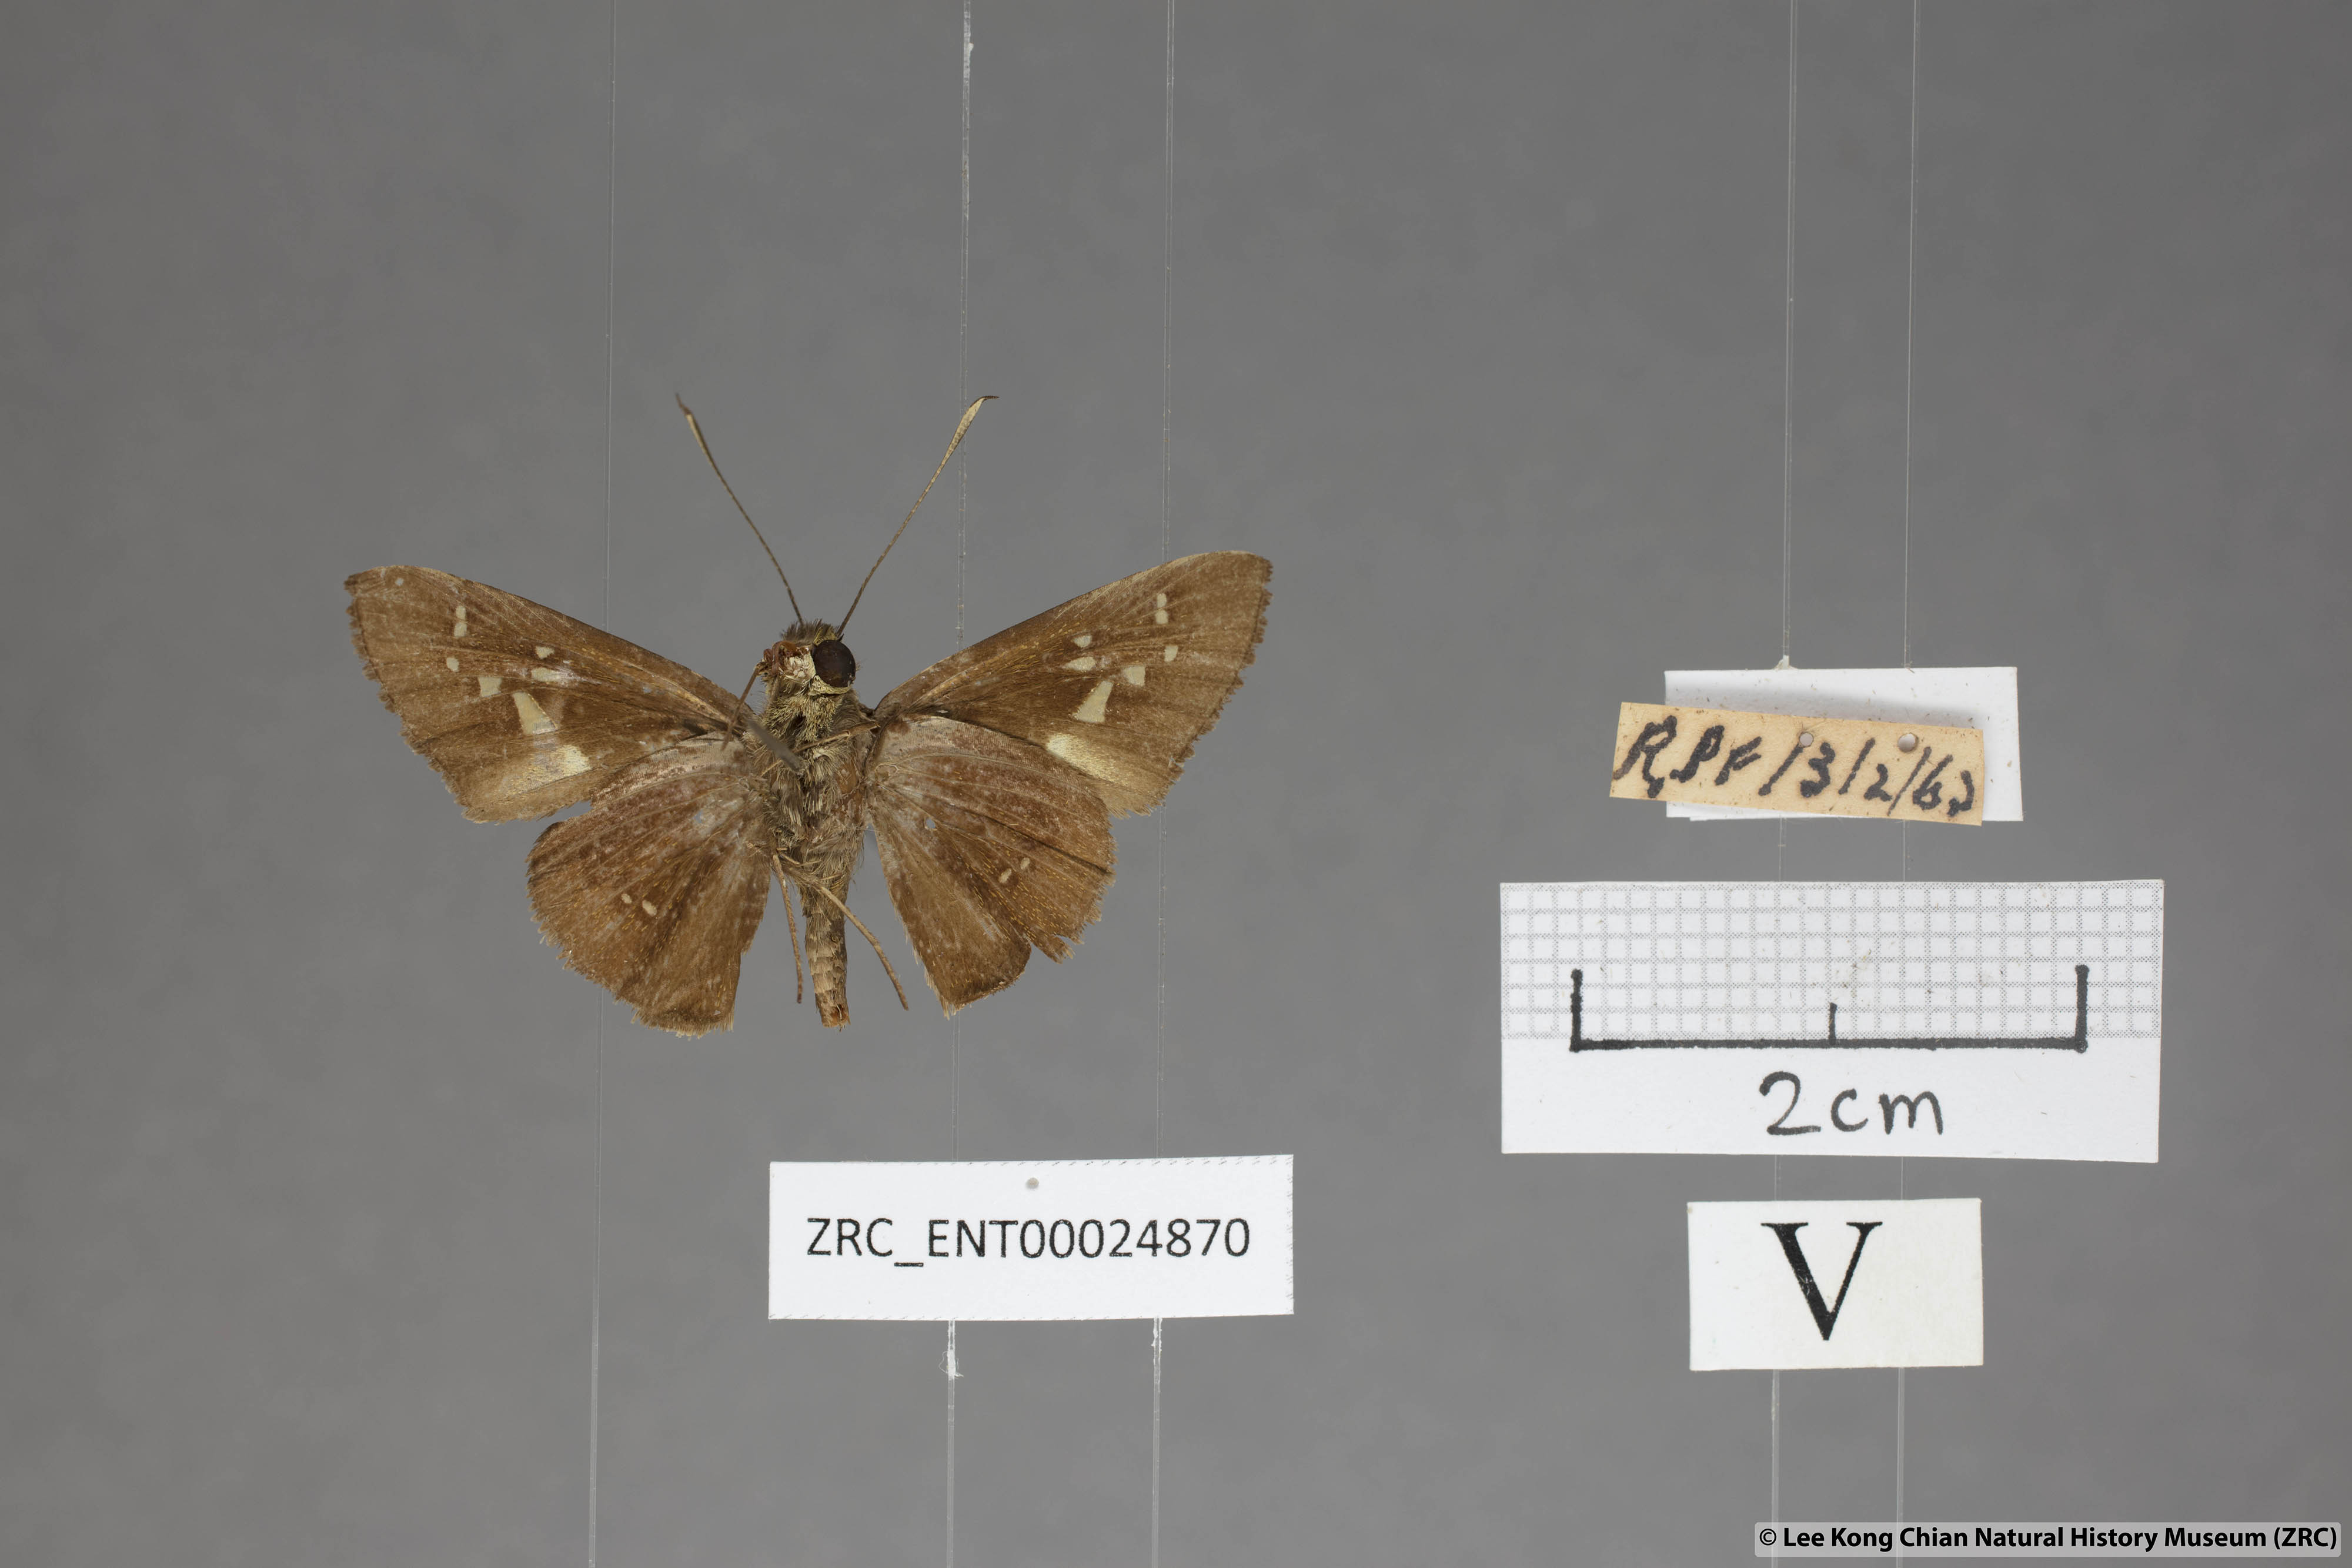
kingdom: Animalia
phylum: Arthropoda
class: Insecta
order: Lepidoptera
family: Hesperiidae
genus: Isma
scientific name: Isma miosticta
